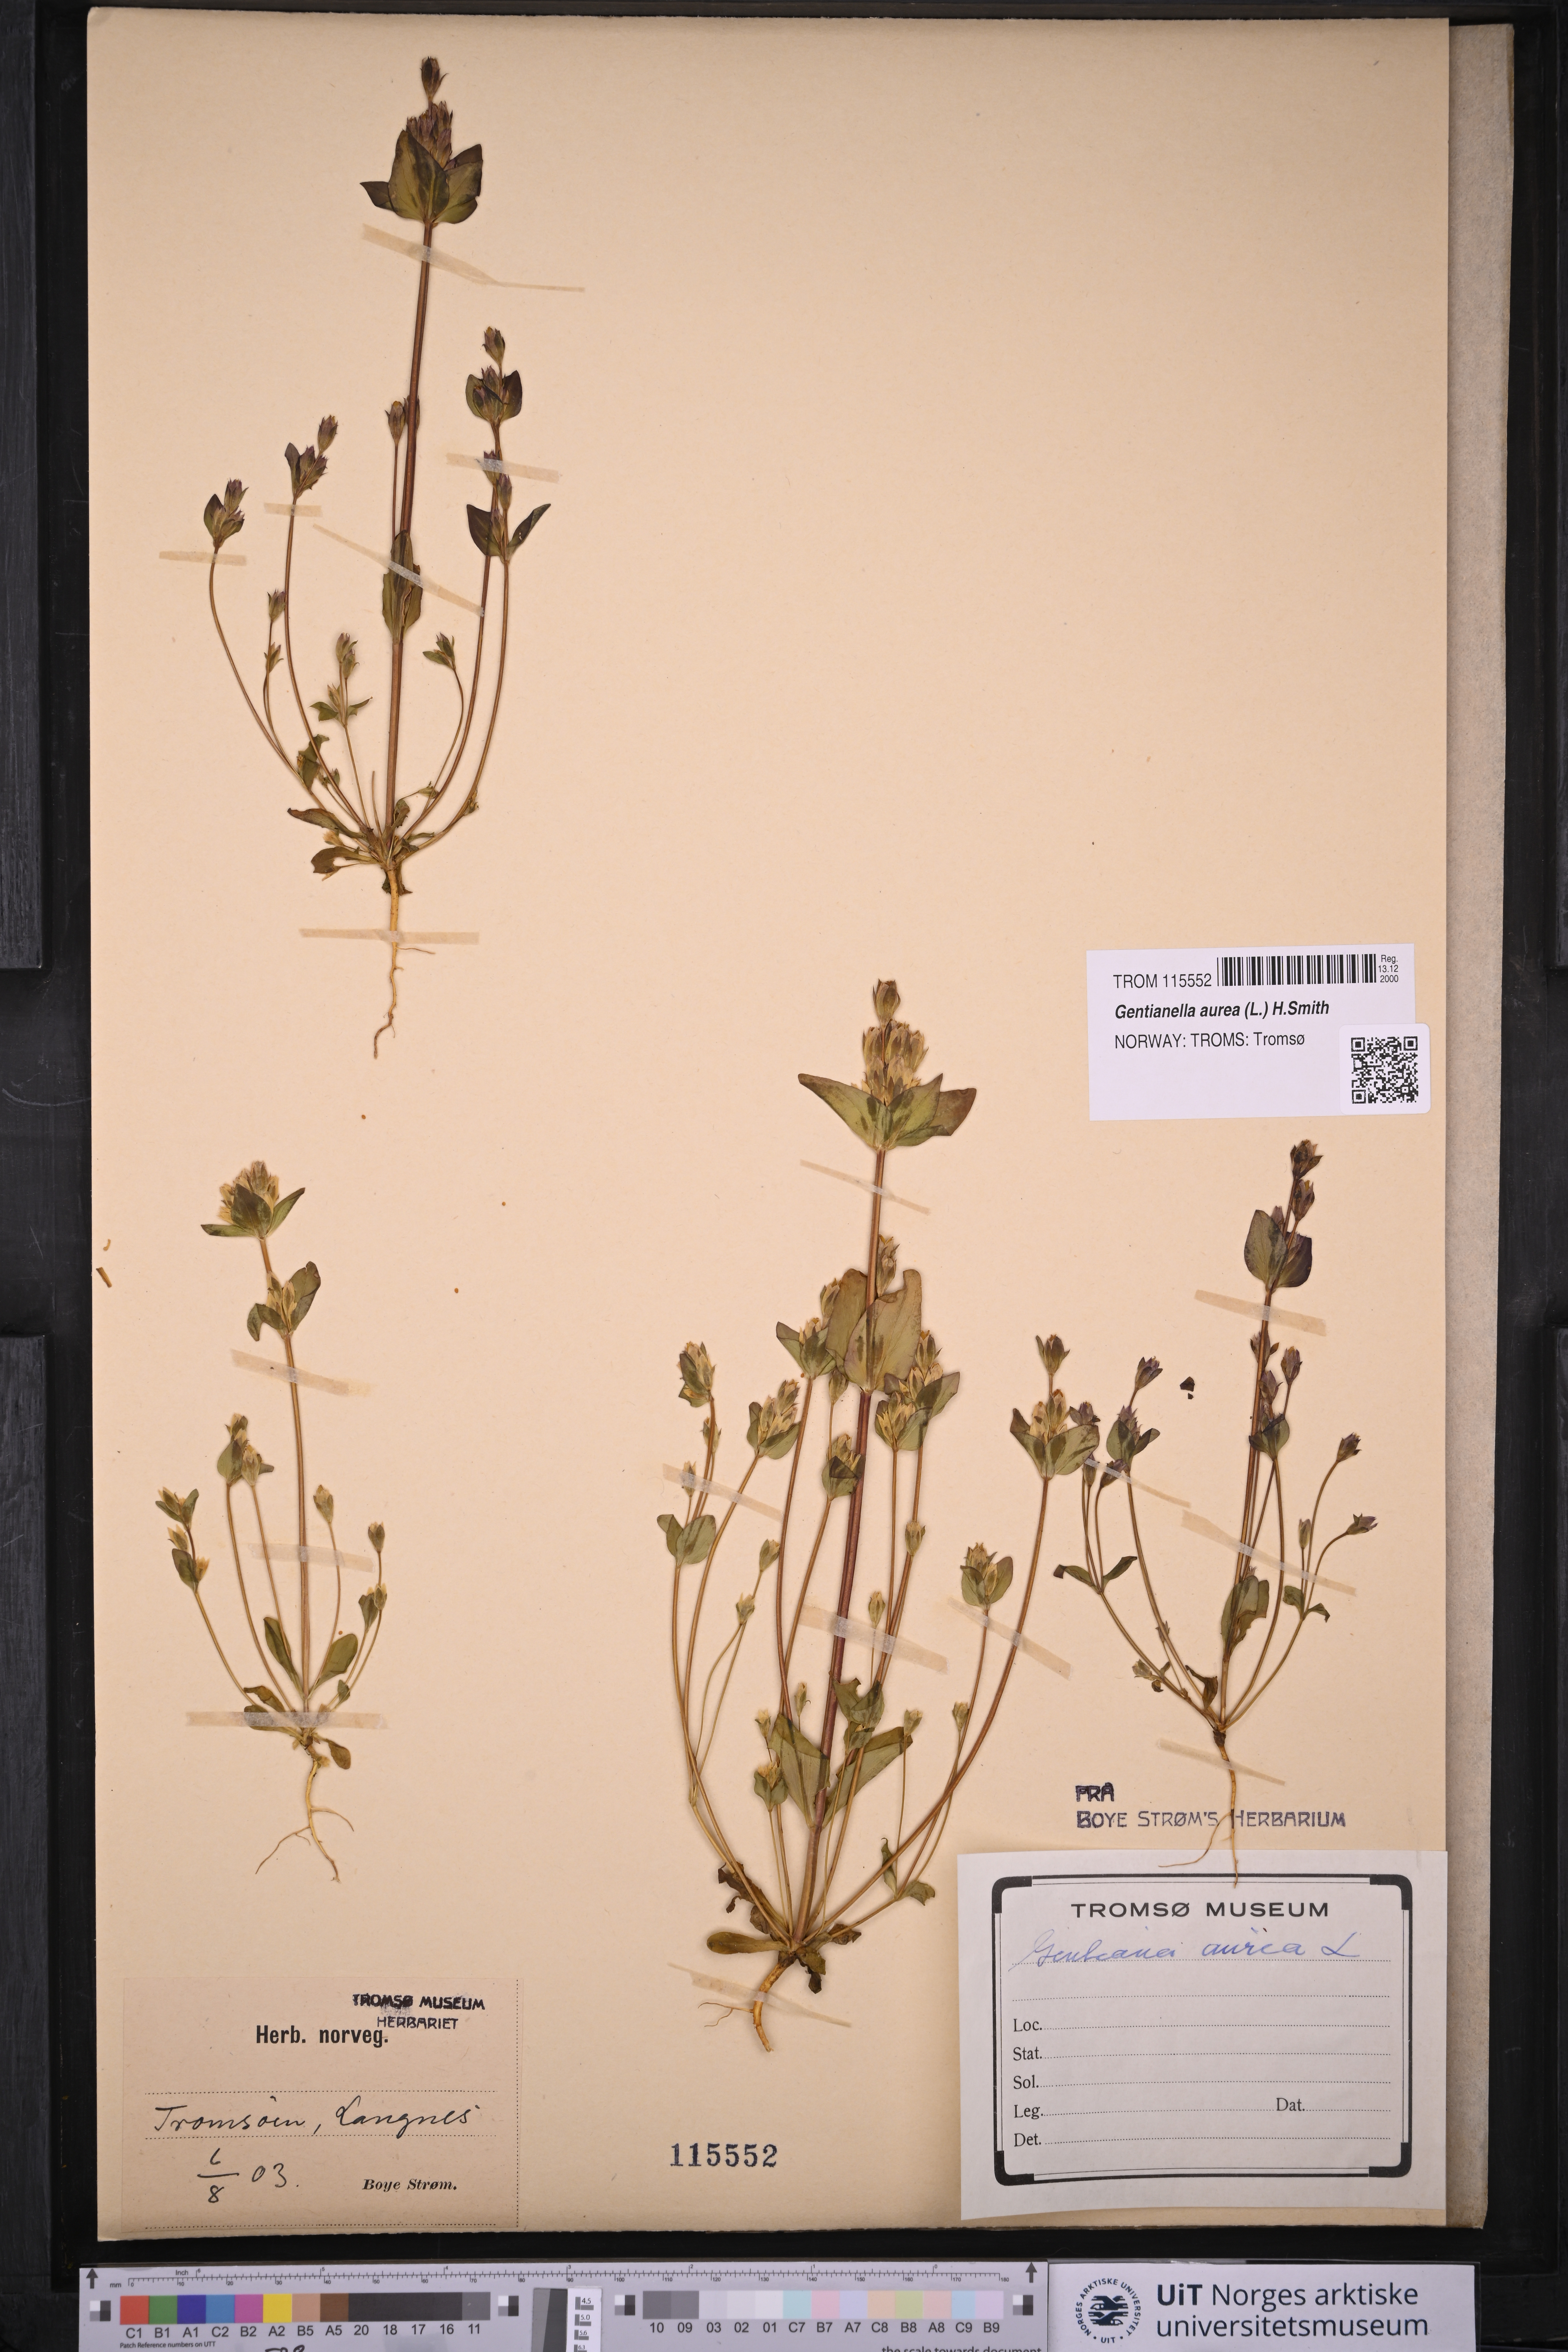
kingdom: Plantae
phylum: Tracheophyta
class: Magnoliopsida
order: Gentianales
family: Gentianaceae
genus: Gentianella
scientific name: Gentianella aurea
